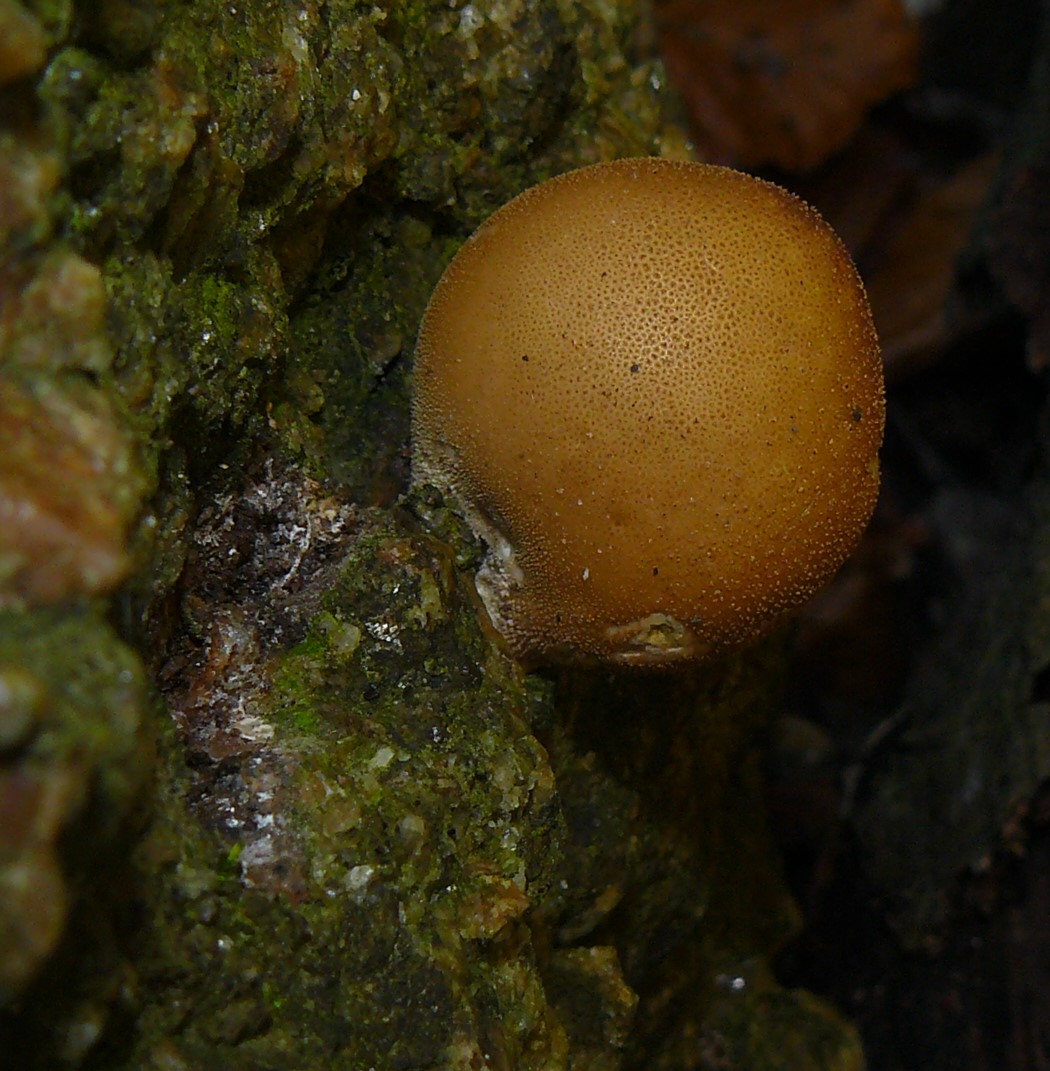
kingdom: Fungi
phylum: Basidiomycota
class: Agaricomycetes
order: Agaricales
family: Lycoperdaceae
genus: Apioperdon
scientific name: Apioperdon pyriforme
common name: pære-støvbold
